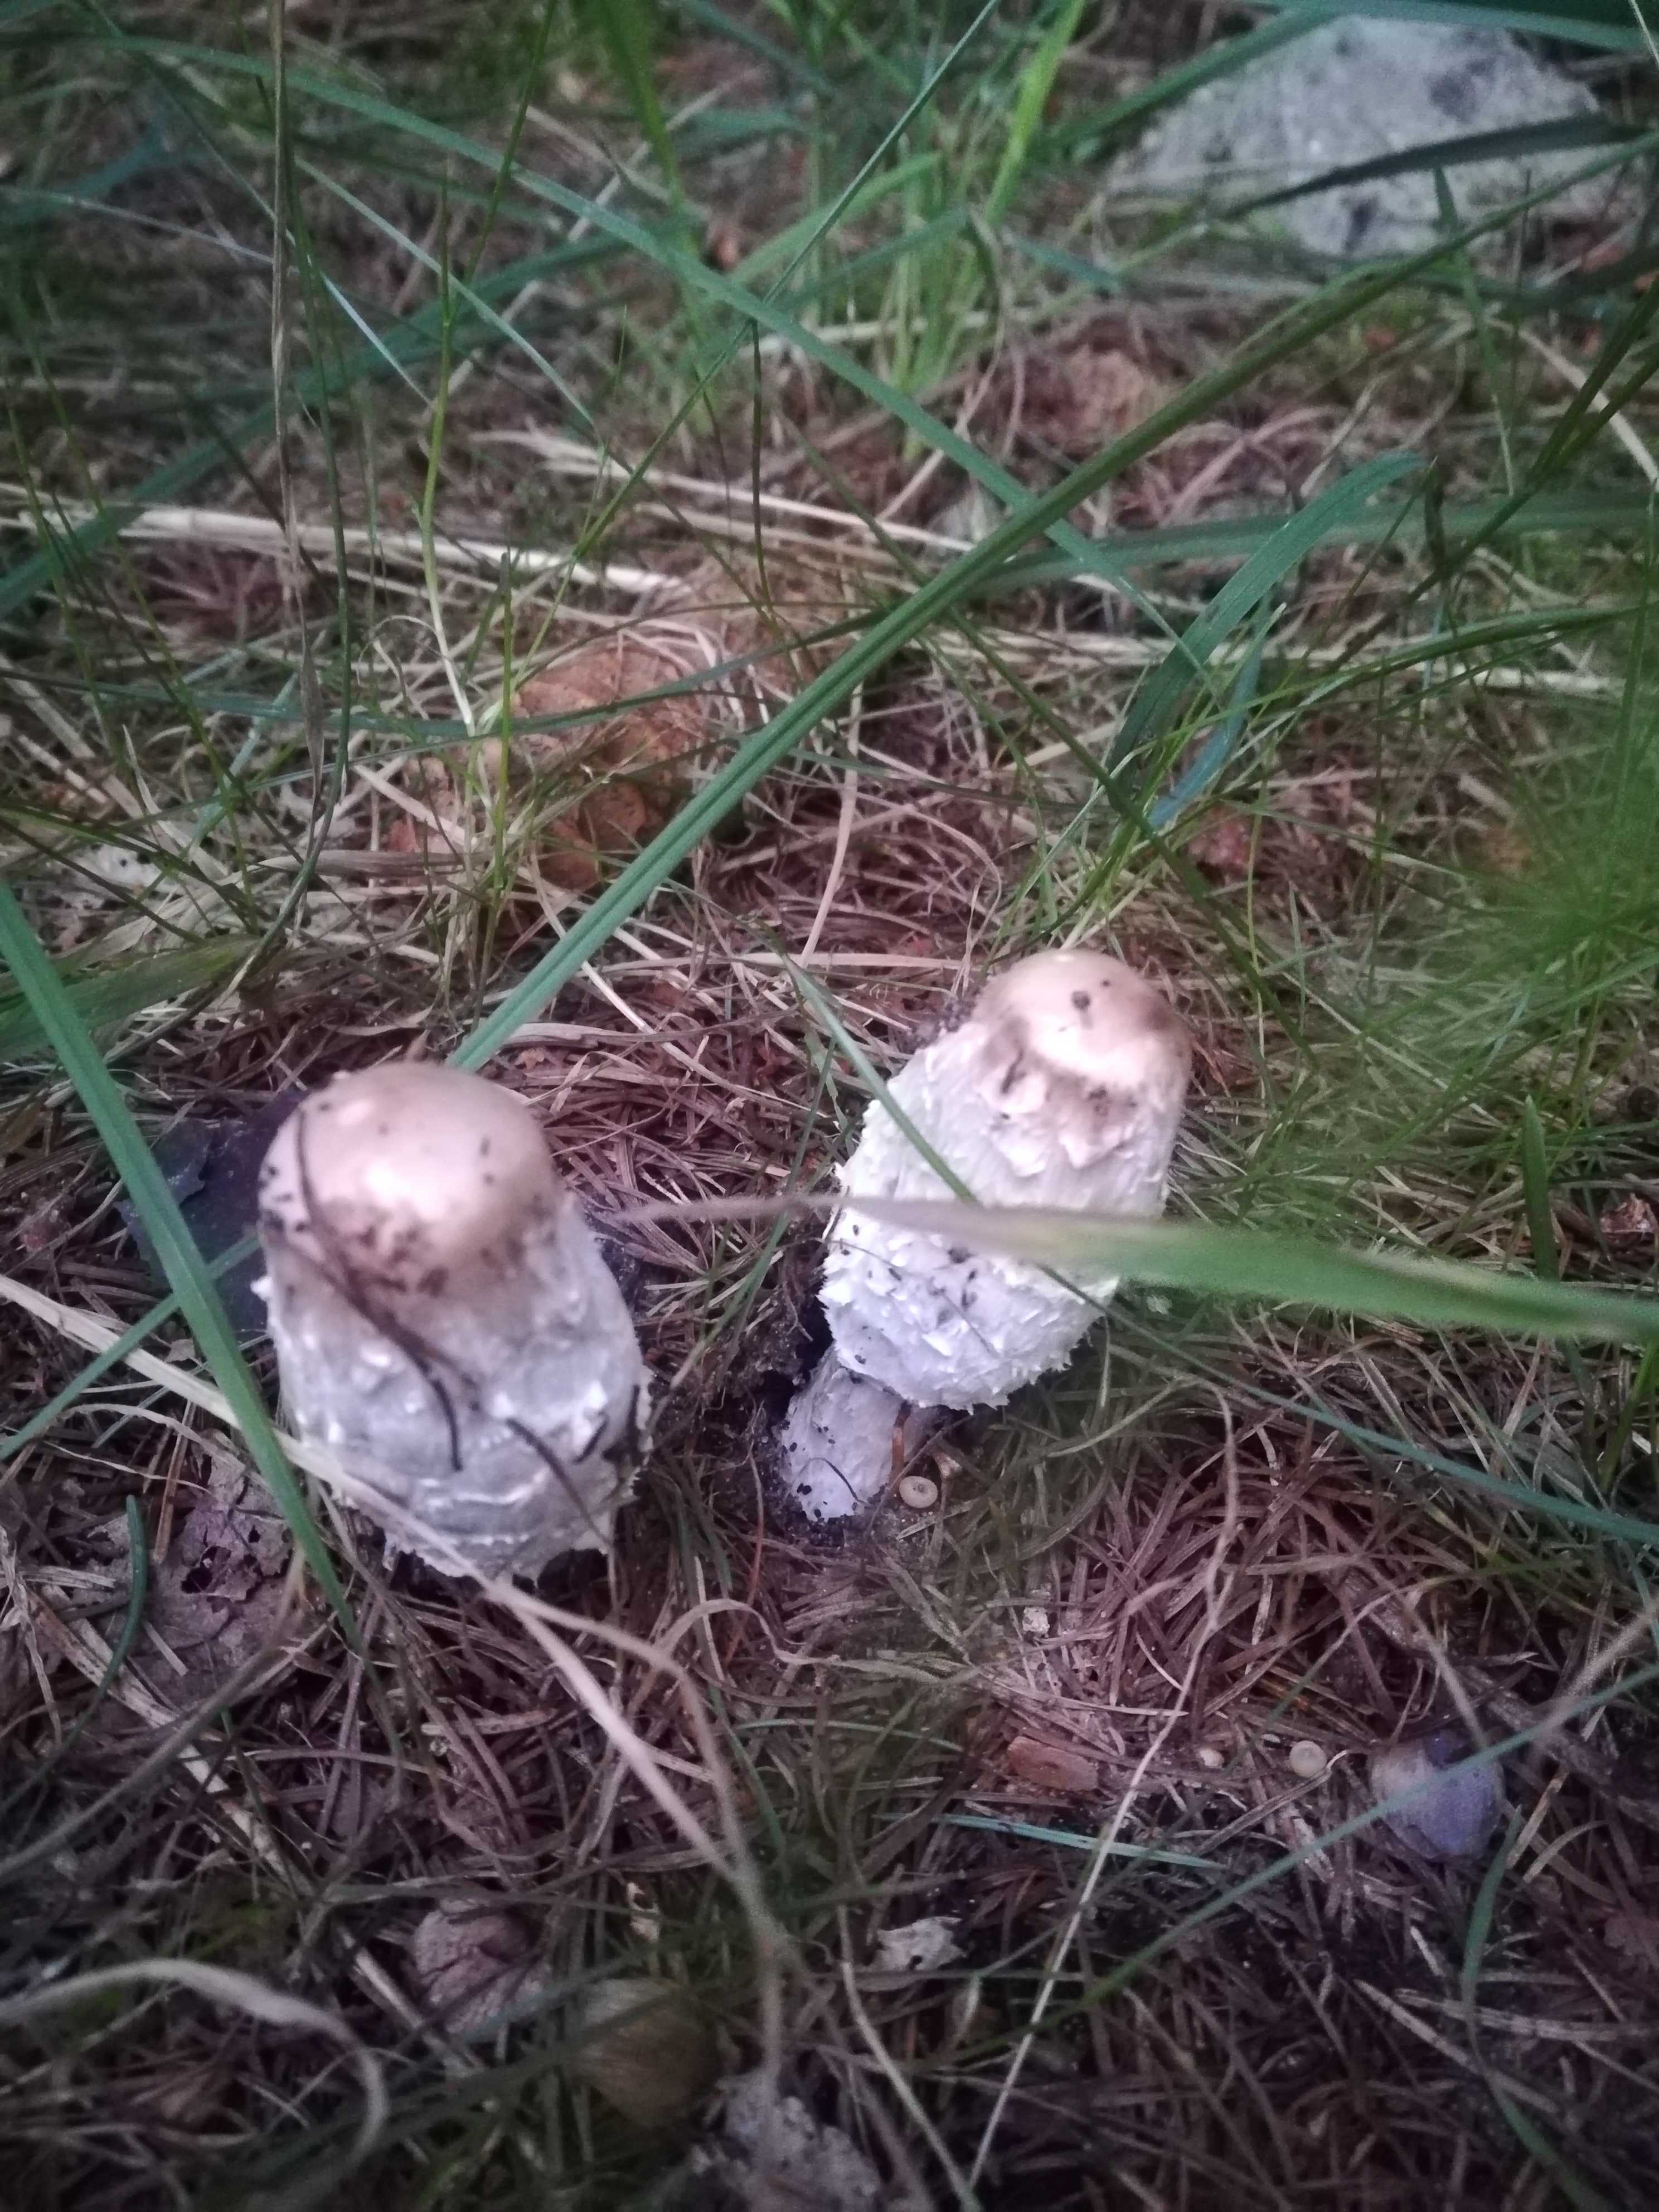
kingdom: Fungi
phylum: Basidiomycota
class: Agaricomycetes
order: Agaricales
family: Agaricaceae
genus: Coprinus
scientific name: Coprinus comatus
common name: stor parykhat
